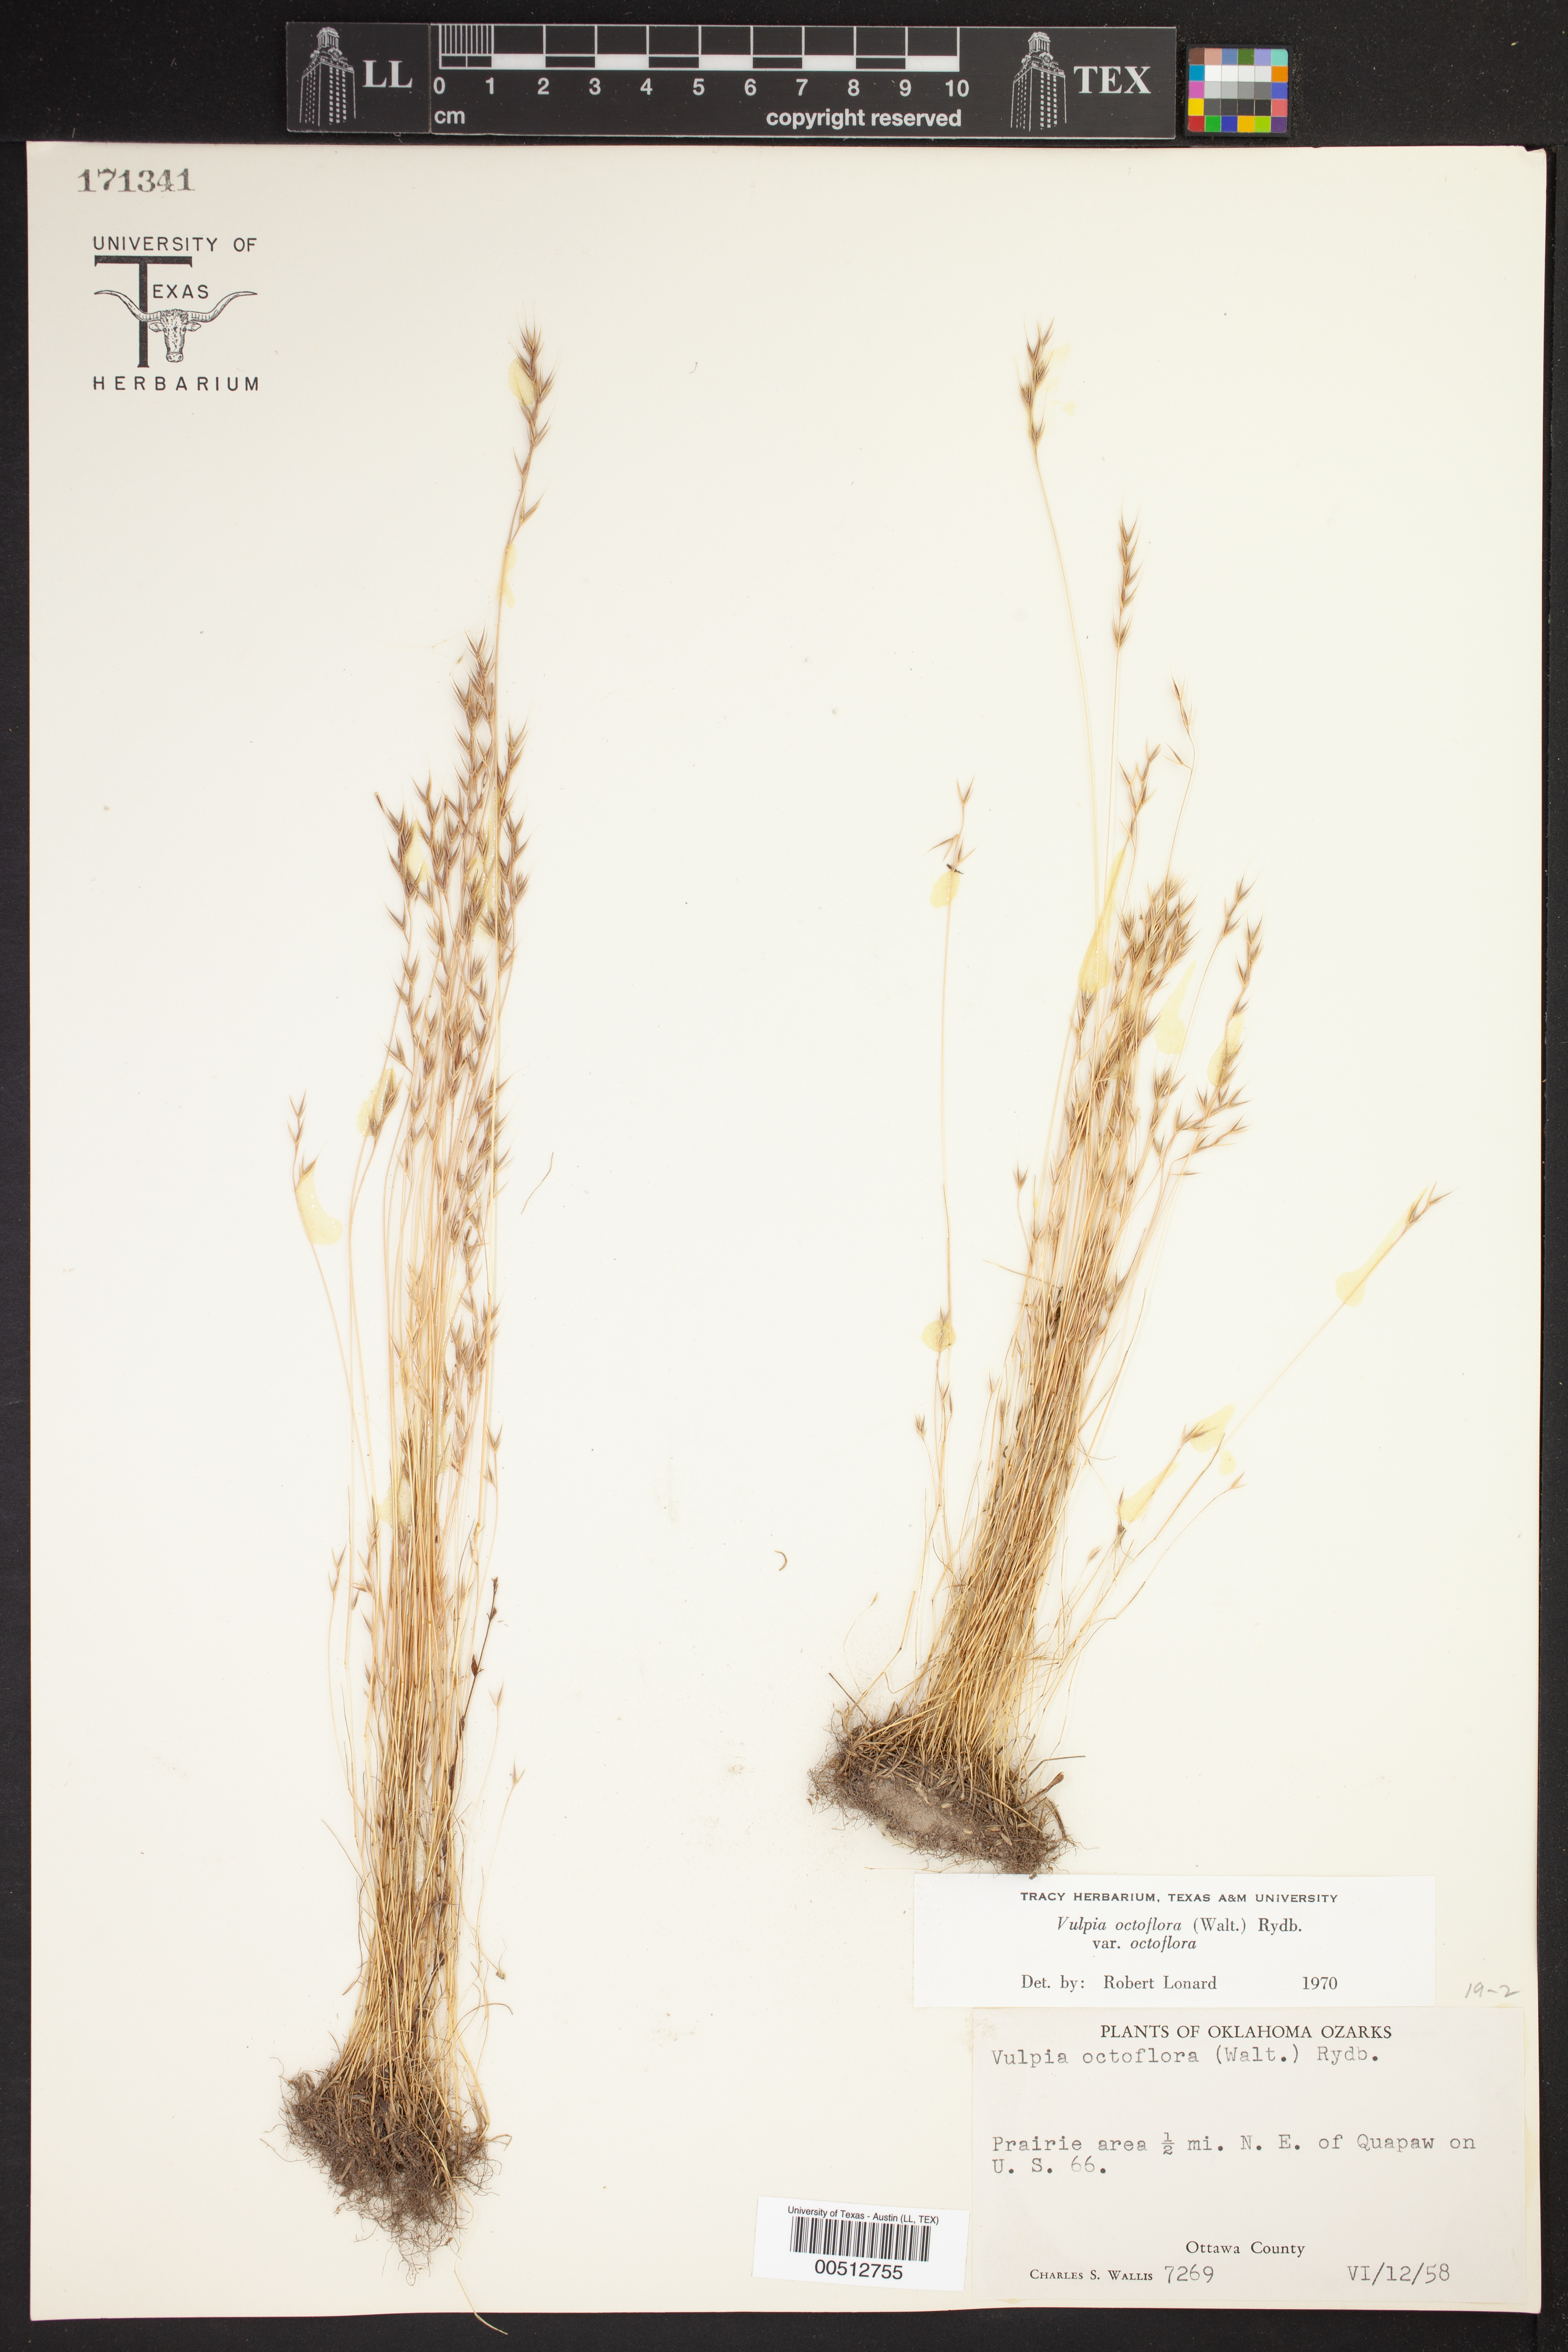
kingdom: Plantae
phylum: Tracheophyta
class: Liliopsida
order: Poales
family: Poaceae
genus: Festuca
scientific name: Festuca octoflora
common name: Sixweeks grass
